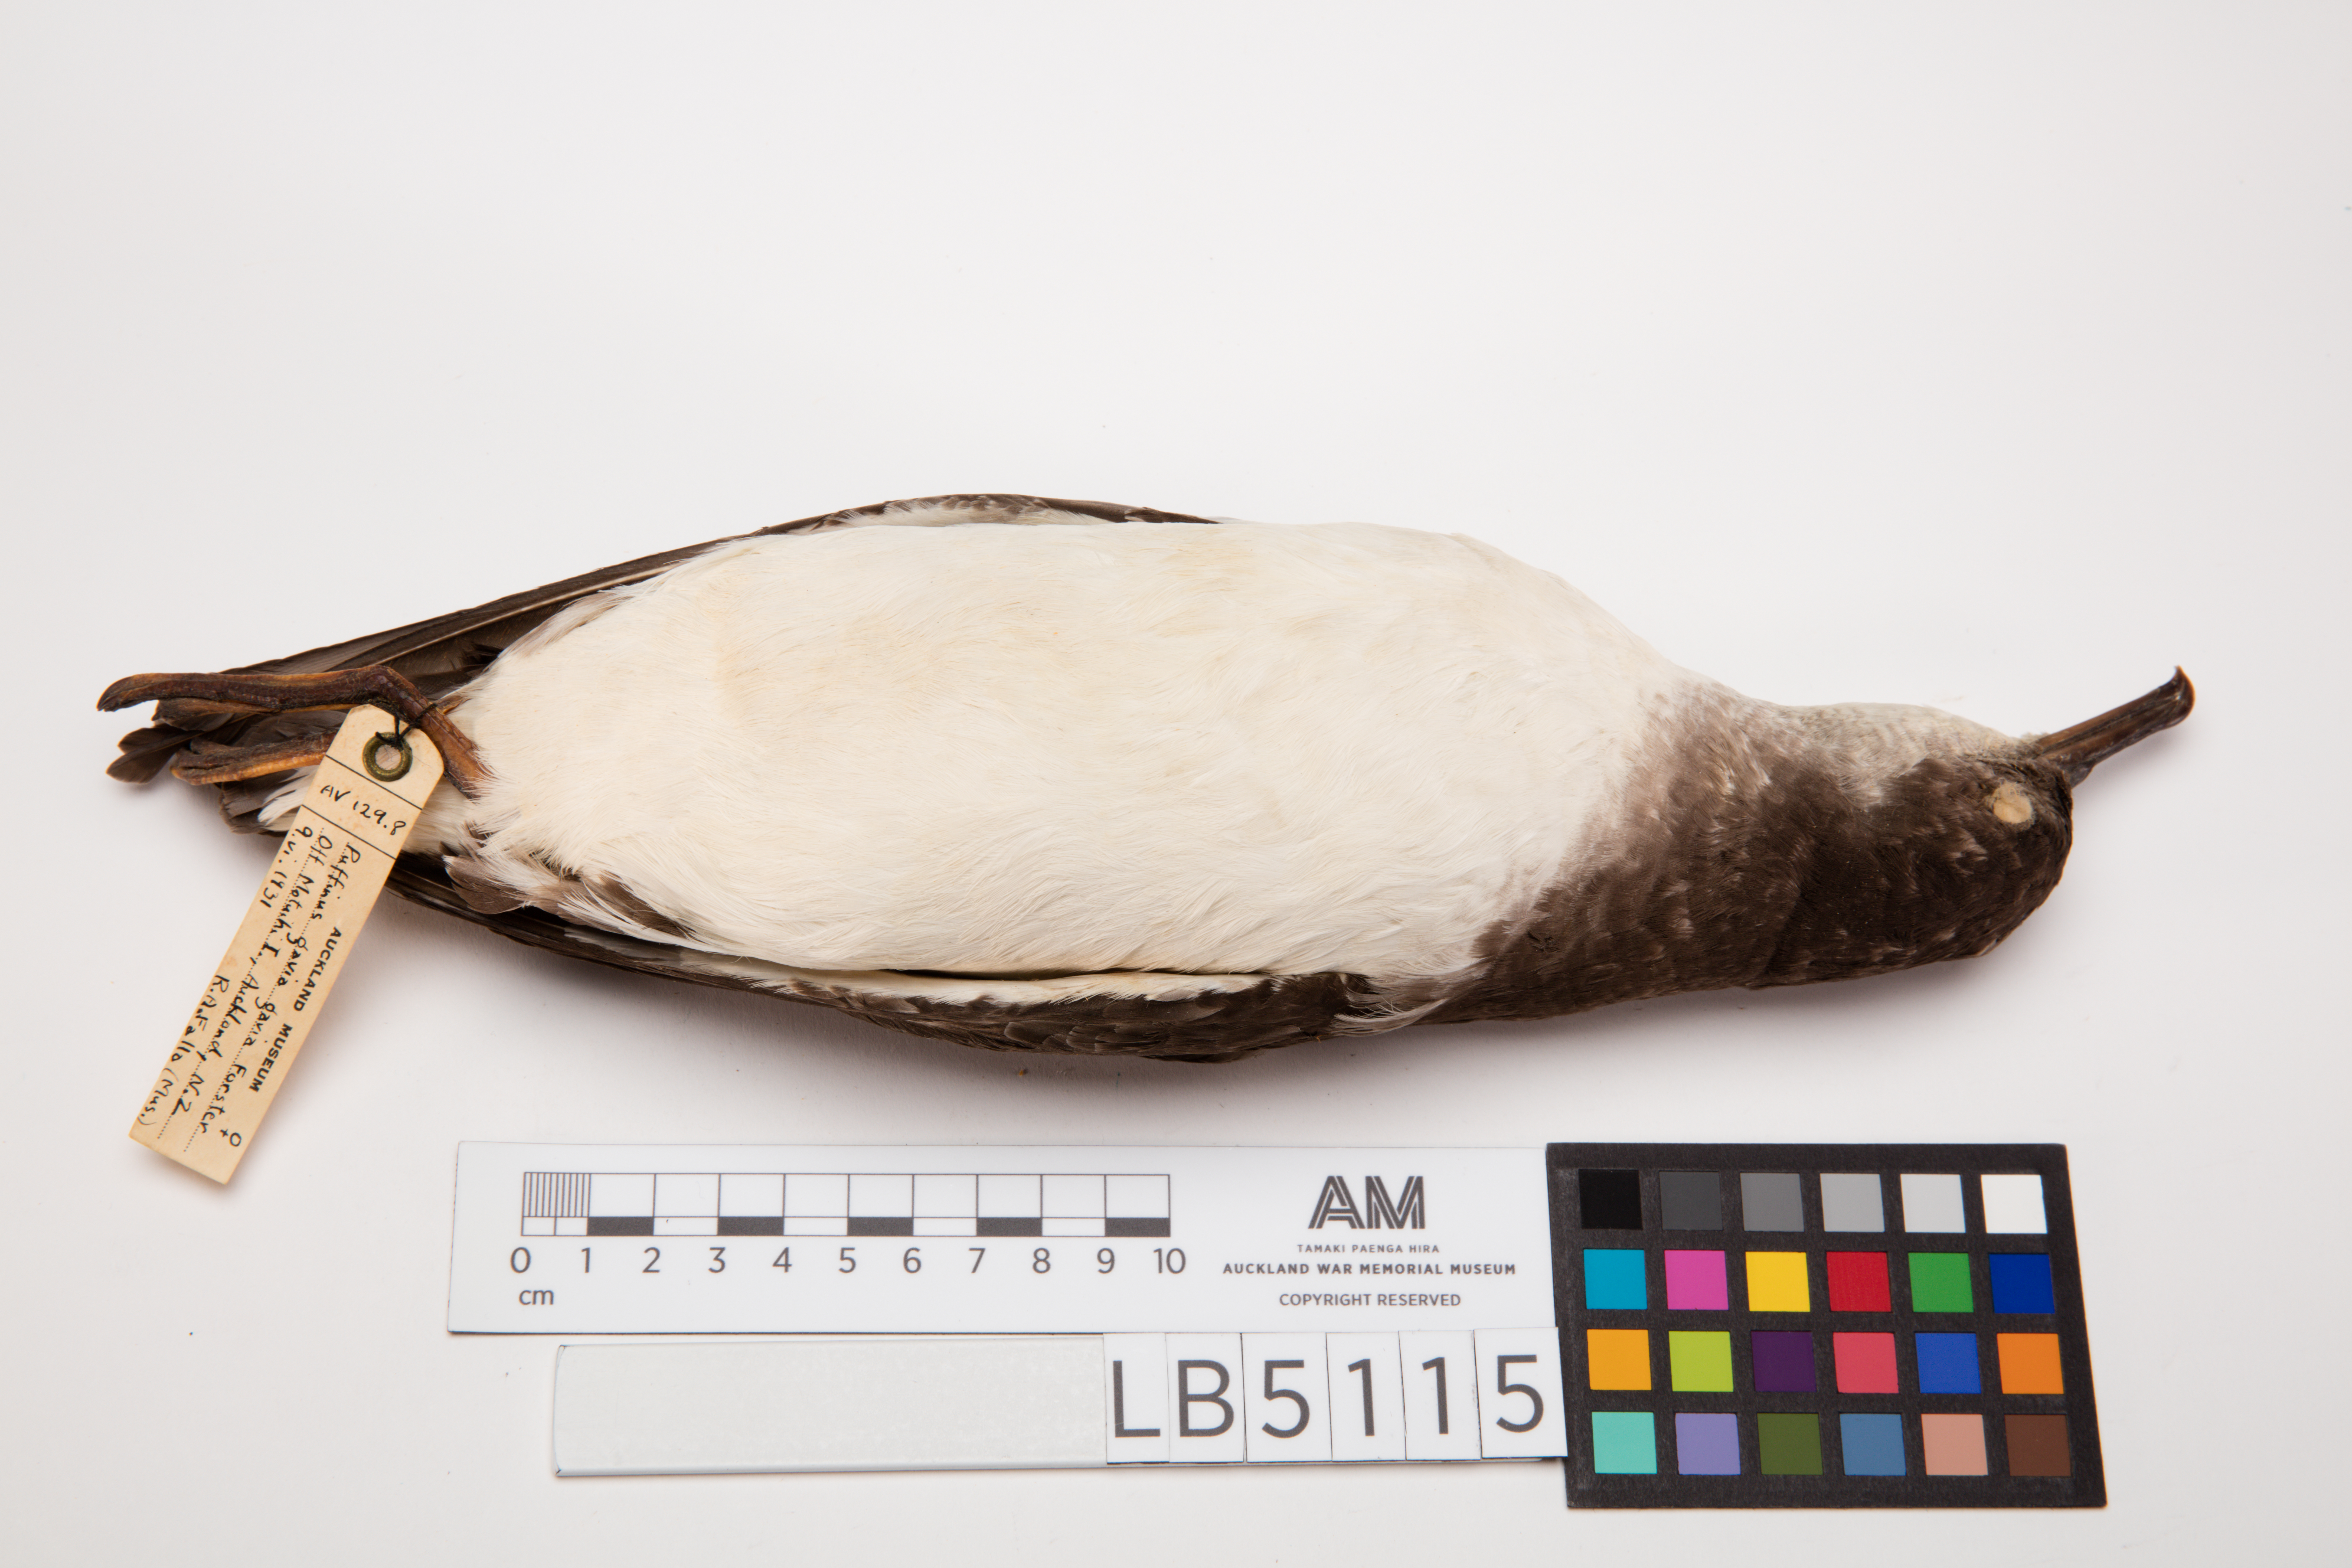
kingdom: Animalia
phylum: Chordata
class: Aves
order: Procellariiformes
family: Procellariidae
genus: Ardenna
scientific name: Ardenna
